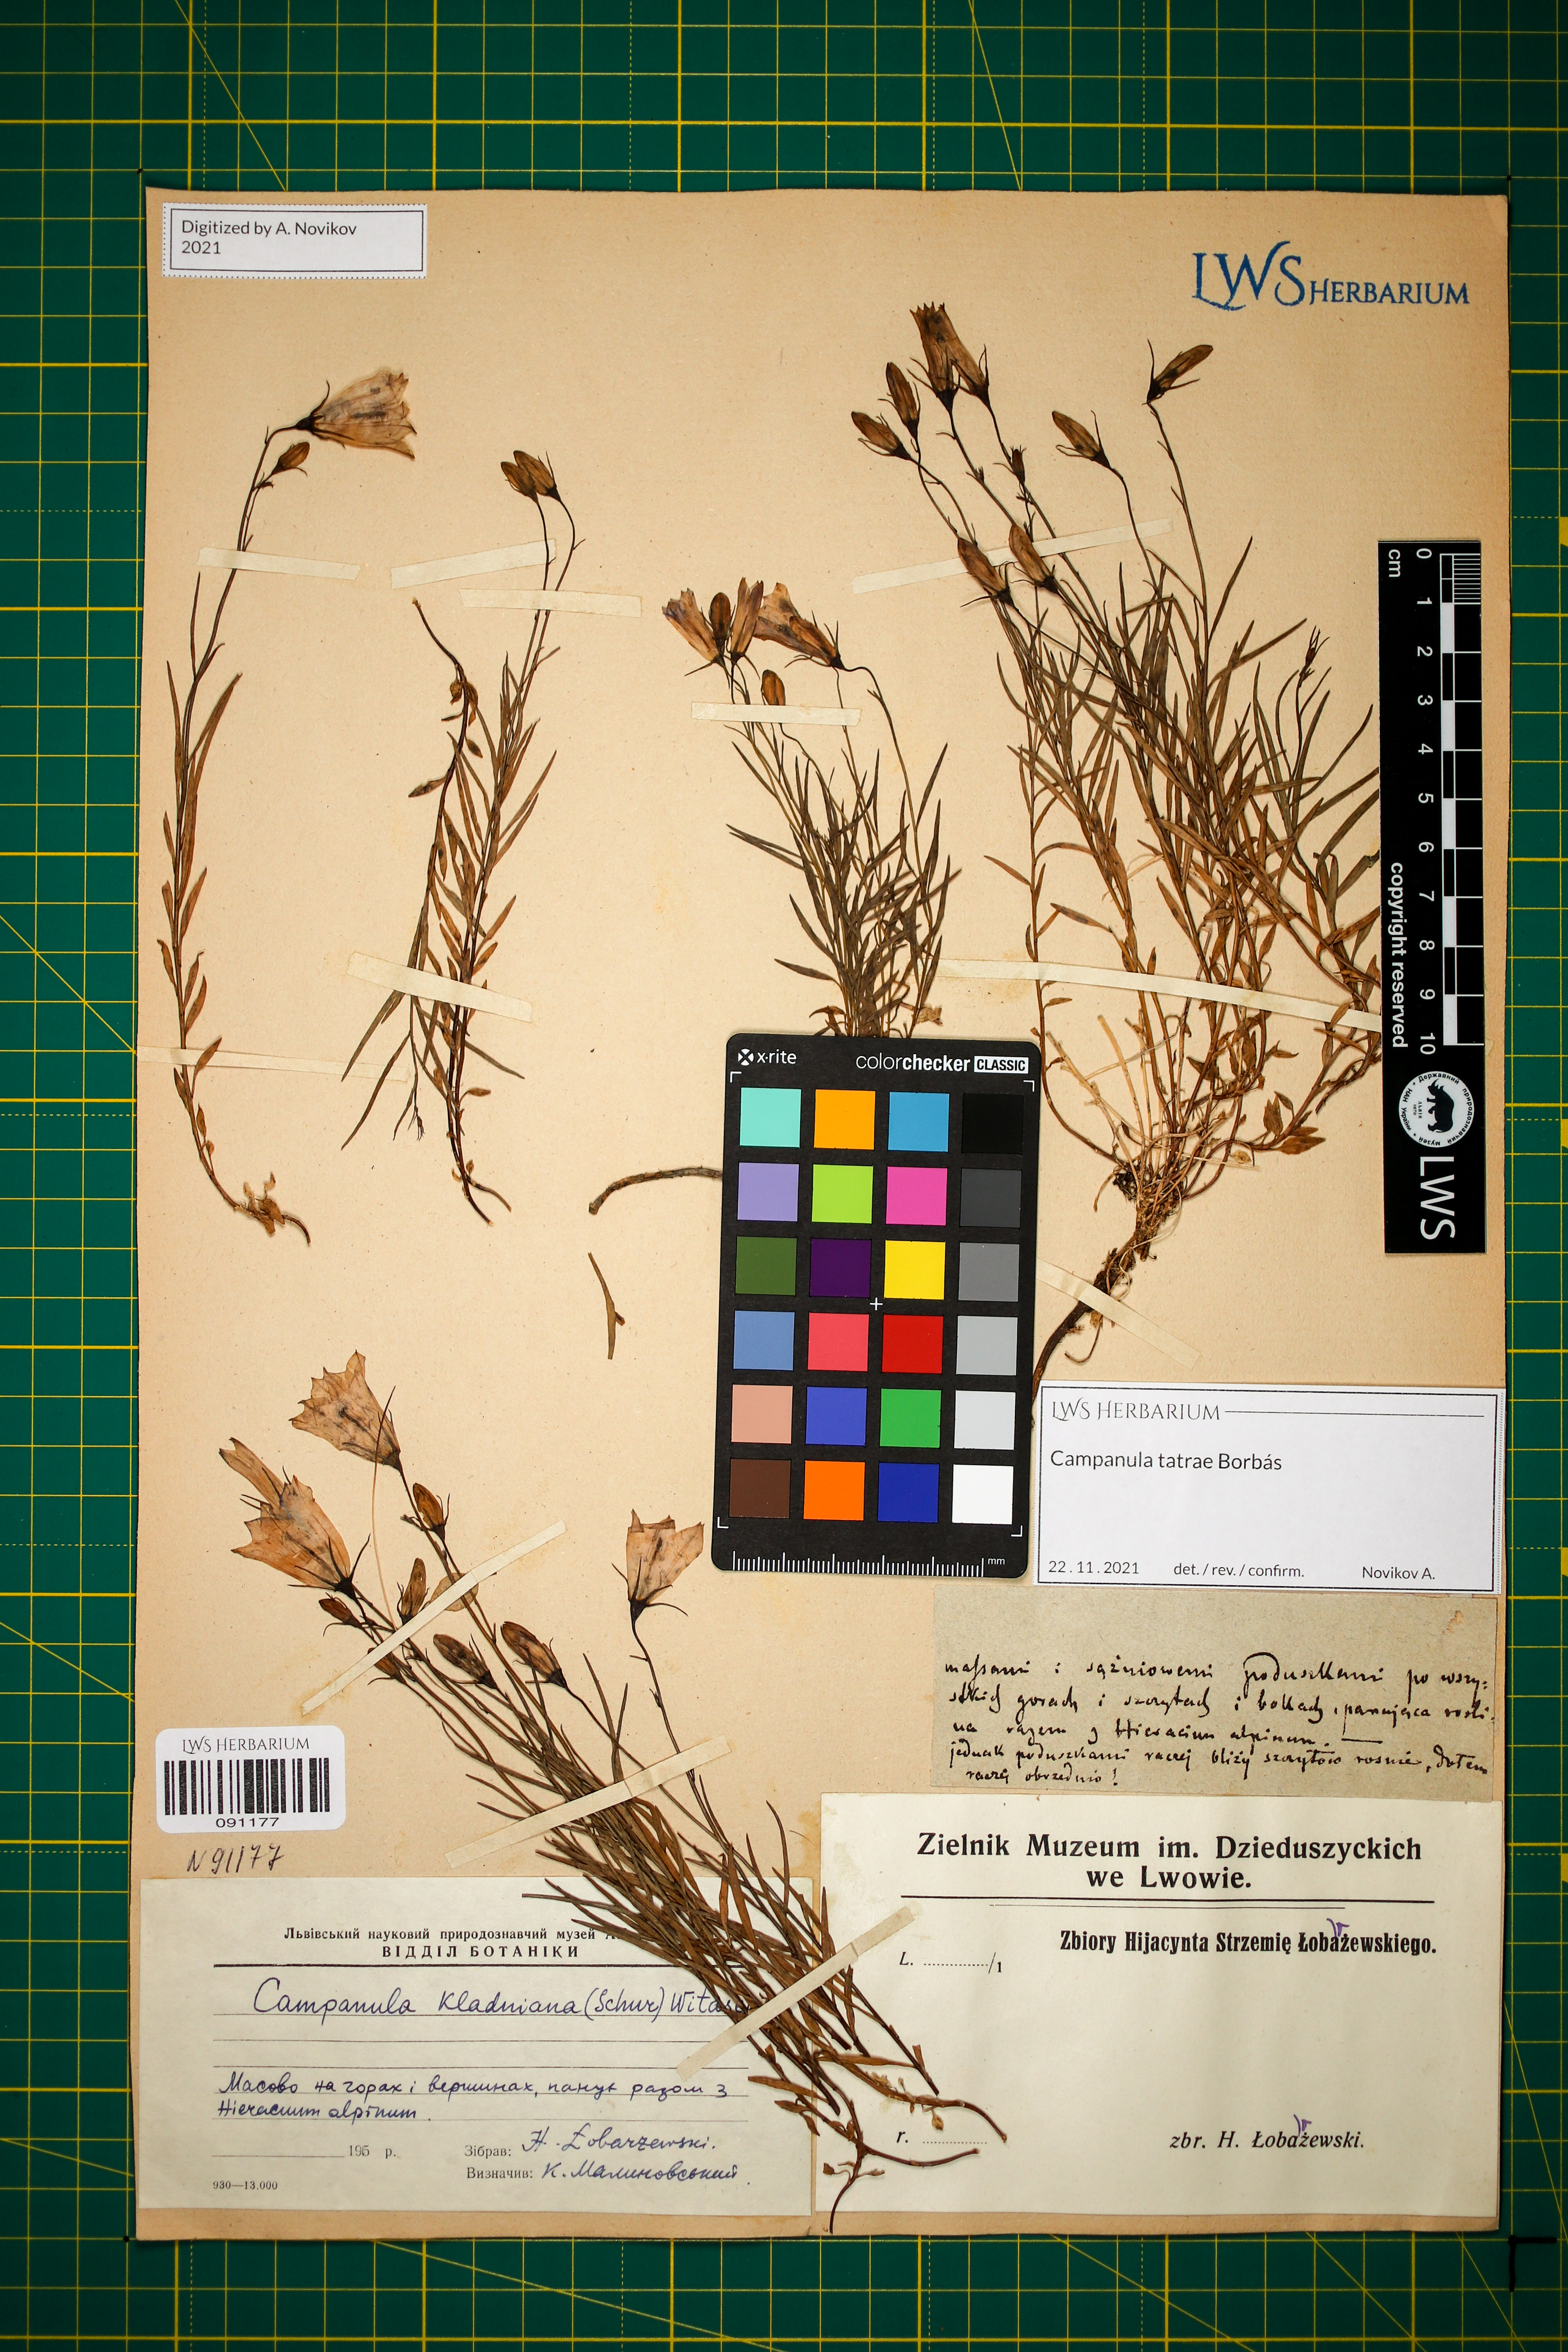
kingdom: Plantae
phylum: Tracheophyta
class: Magnoliopsida
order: Asterales
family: Campanulaceae
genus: Campanula
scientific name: Campanula kladniana
